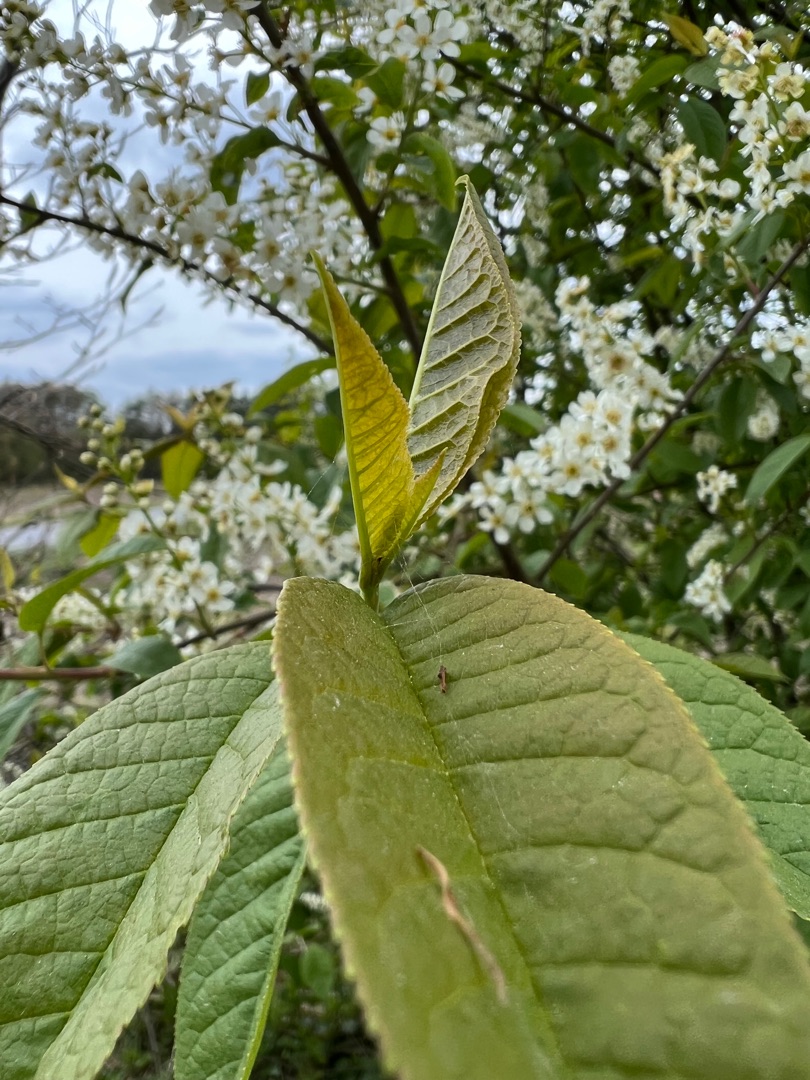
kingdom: Plantae
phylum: Tracheophyta
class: Magnoliopsida
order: Rosales
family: Rosaceae
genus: Prunus
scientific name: Prunus padus
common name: Almindelig hæg
